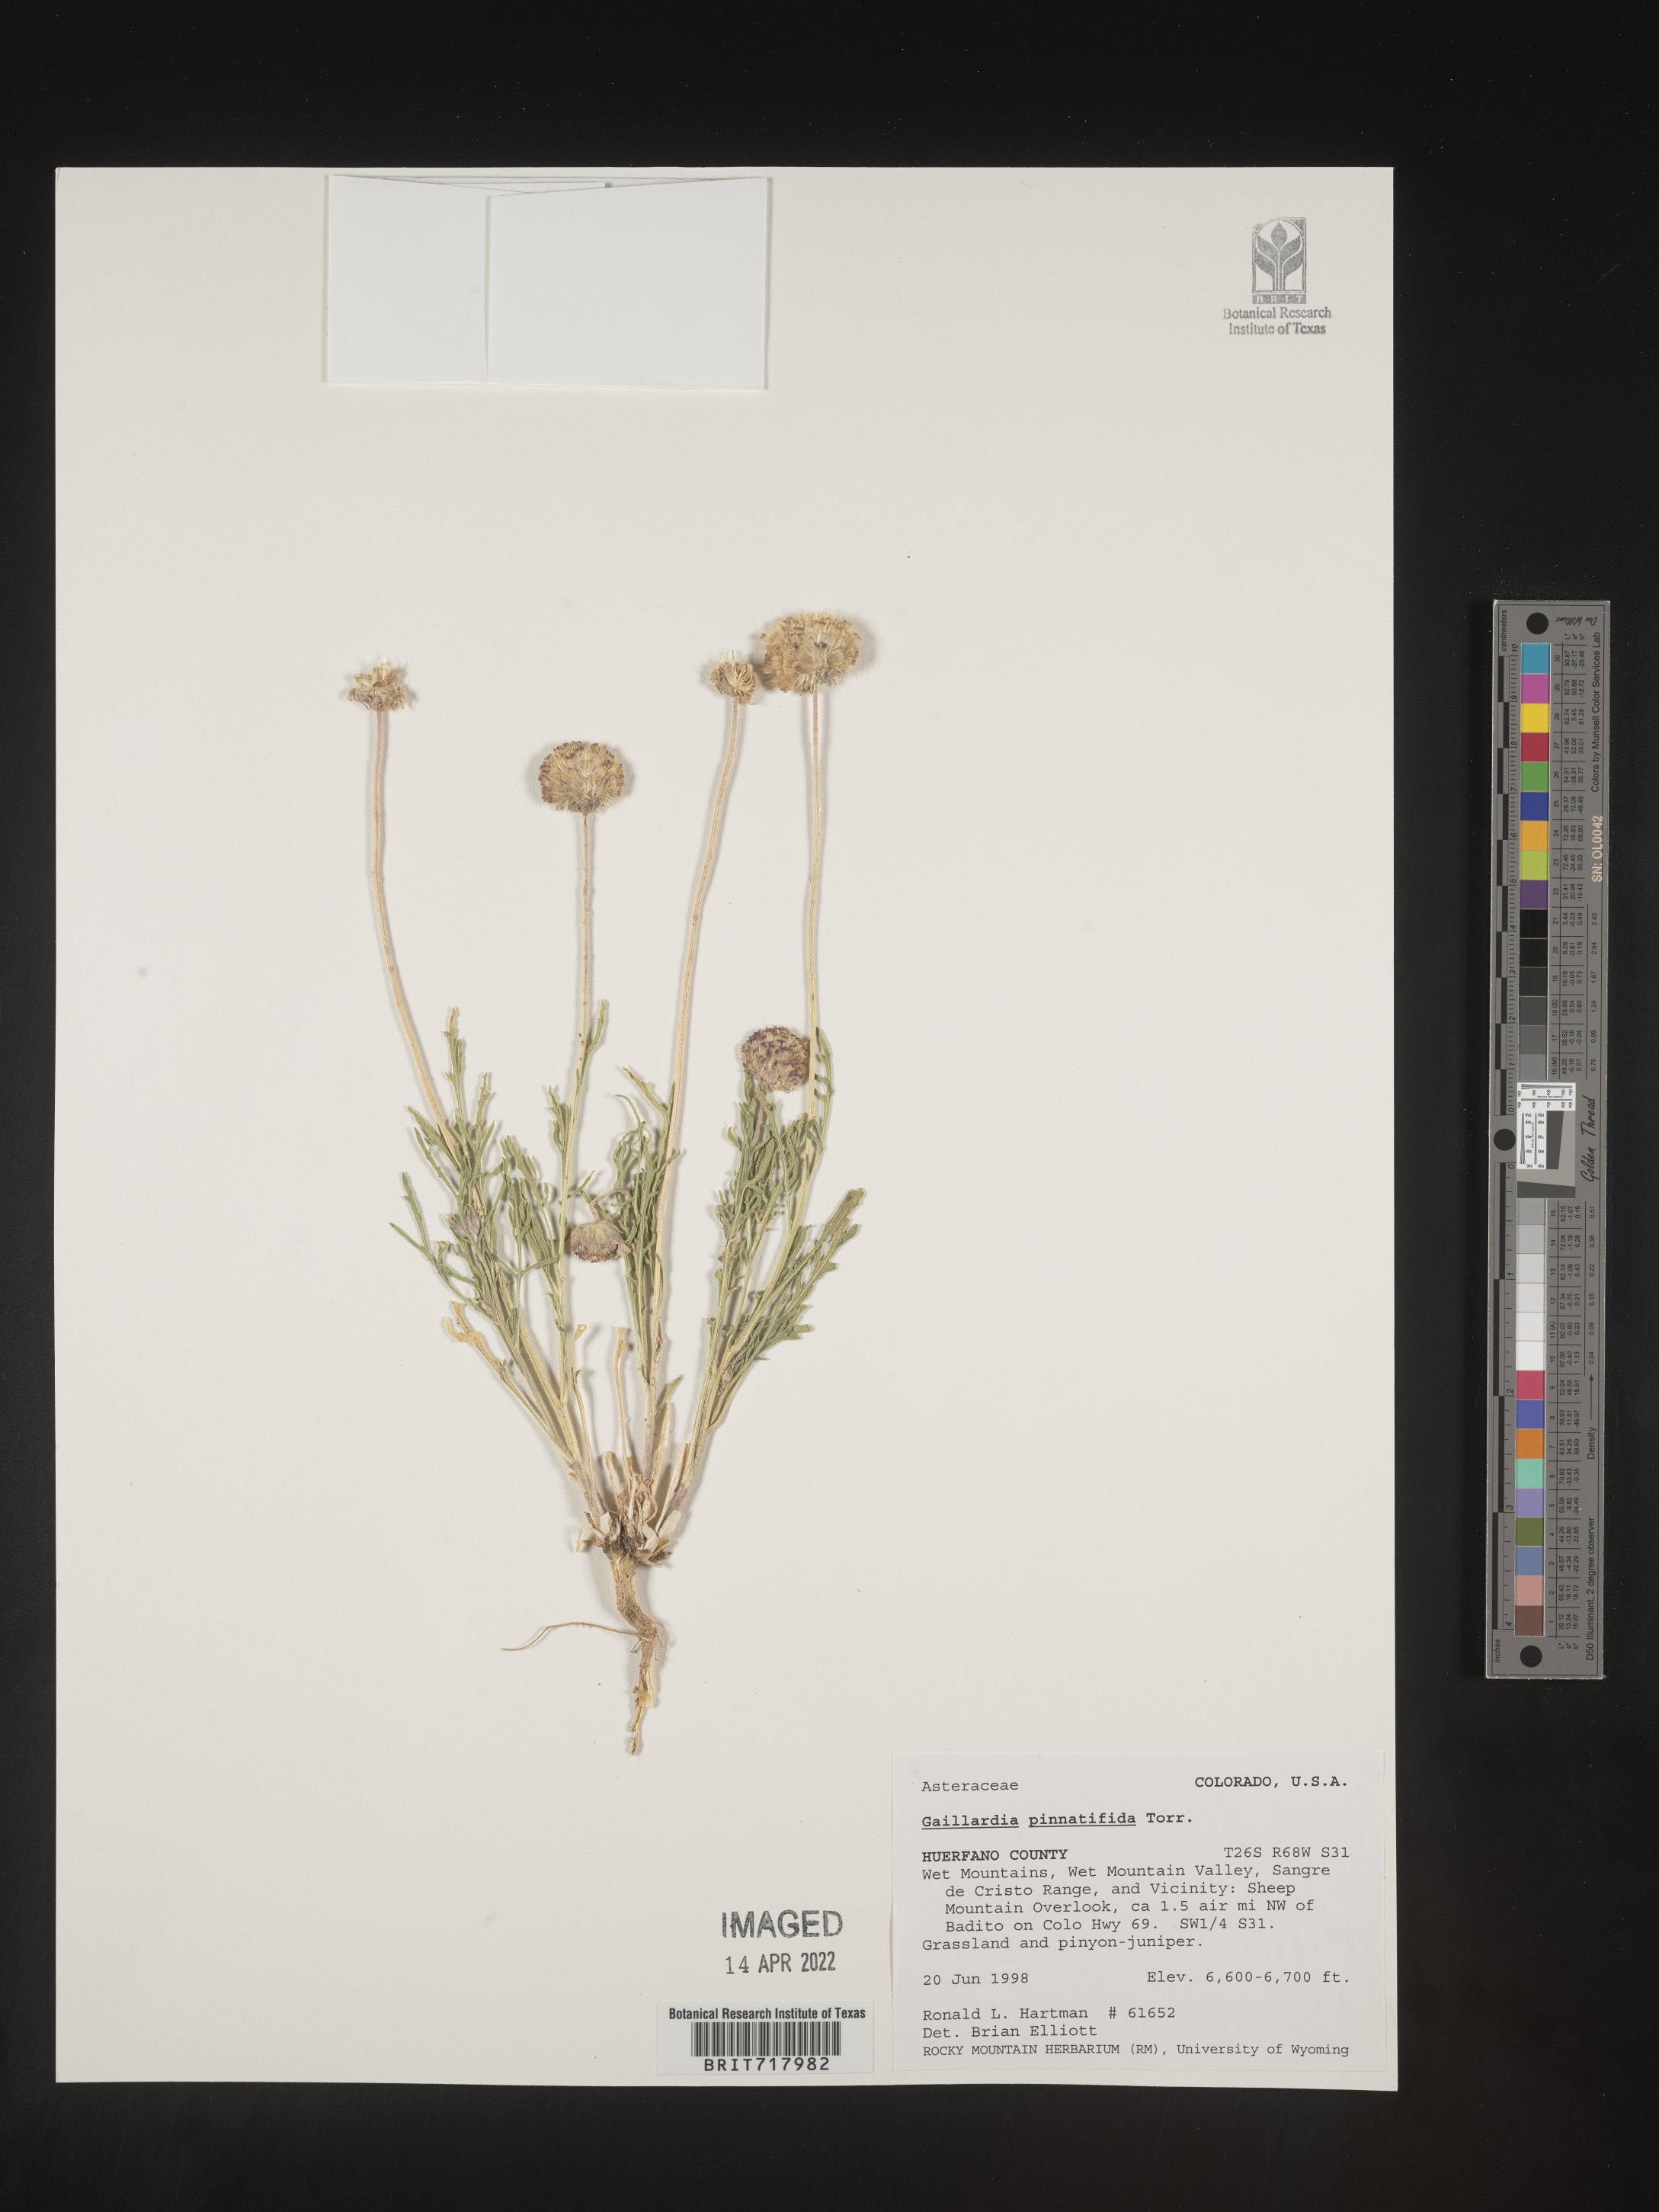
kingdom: Plantae
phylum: Tracheophyta
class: Magnoliopsida
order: Asterales
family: Asteraceae
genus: Gaillardia
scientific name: Gaillardia pinnatifida
